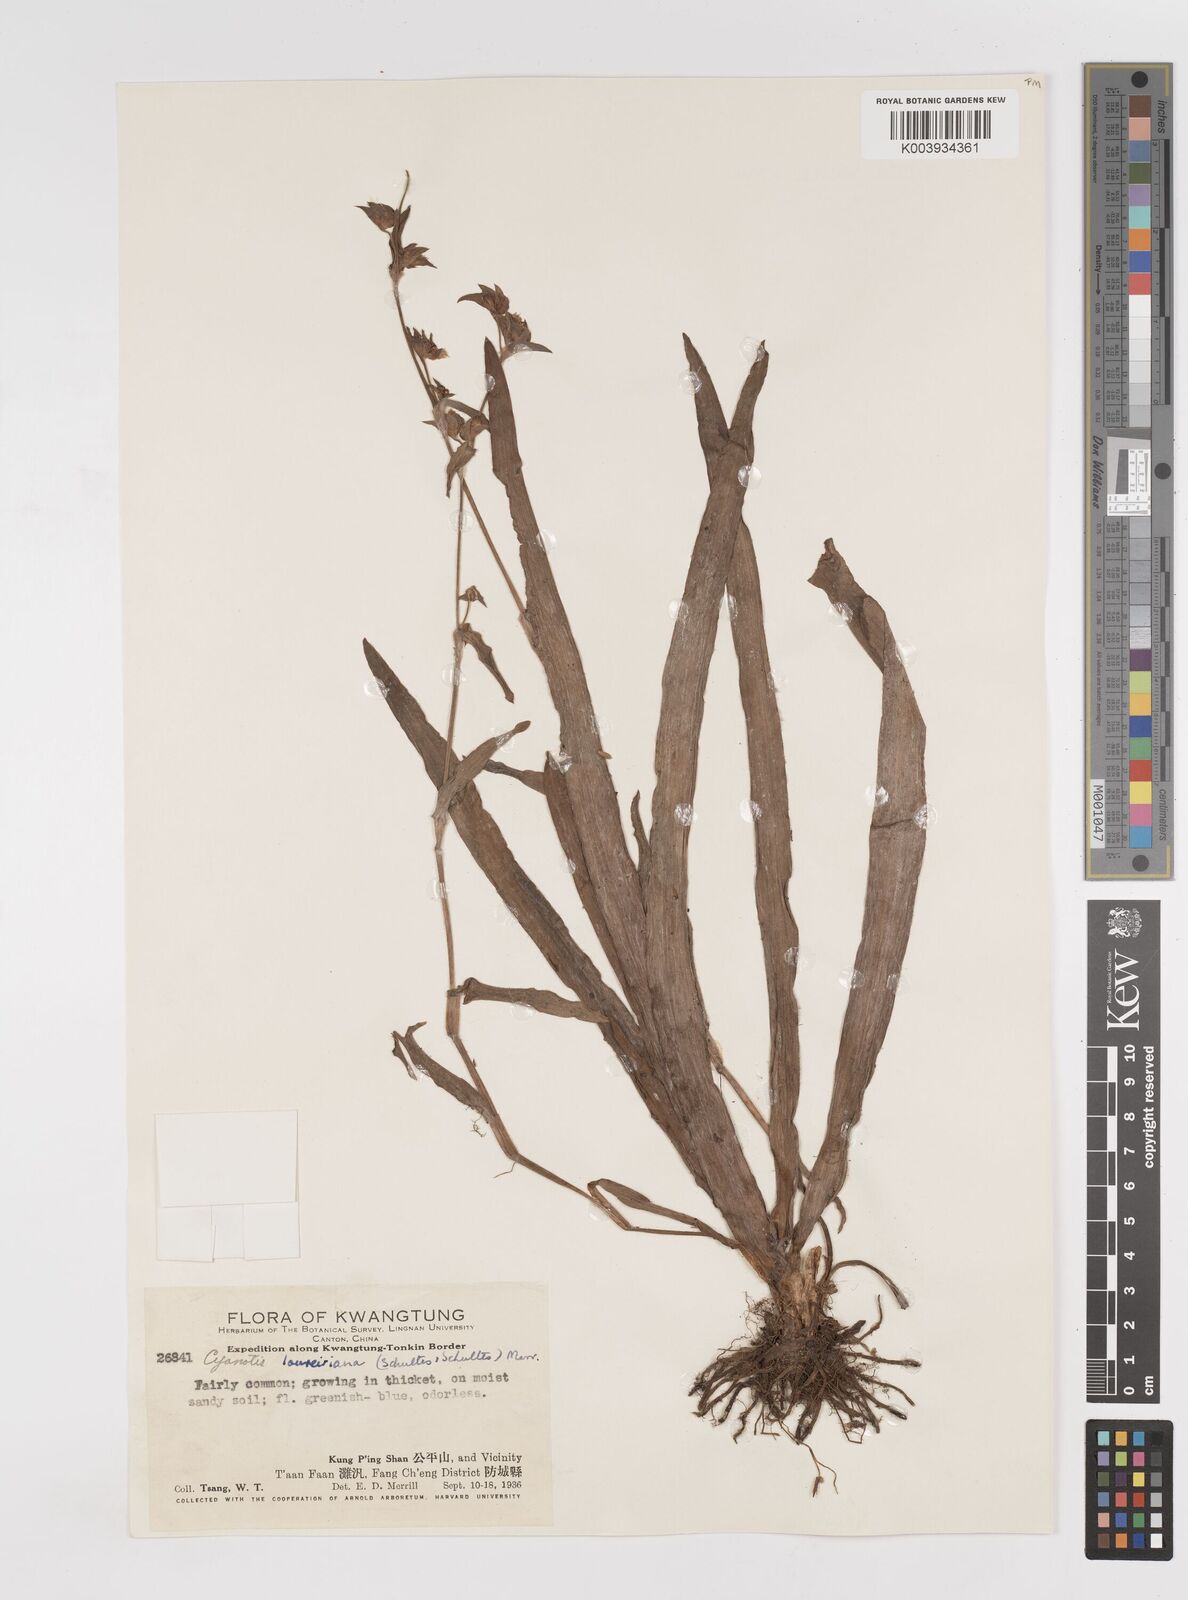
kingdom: Plantae
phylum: Tracheophyta
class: Liliopsida
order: Commelinales
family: Commelinaceae
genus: Cyanotis
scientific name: Cyanotis loureiroana
